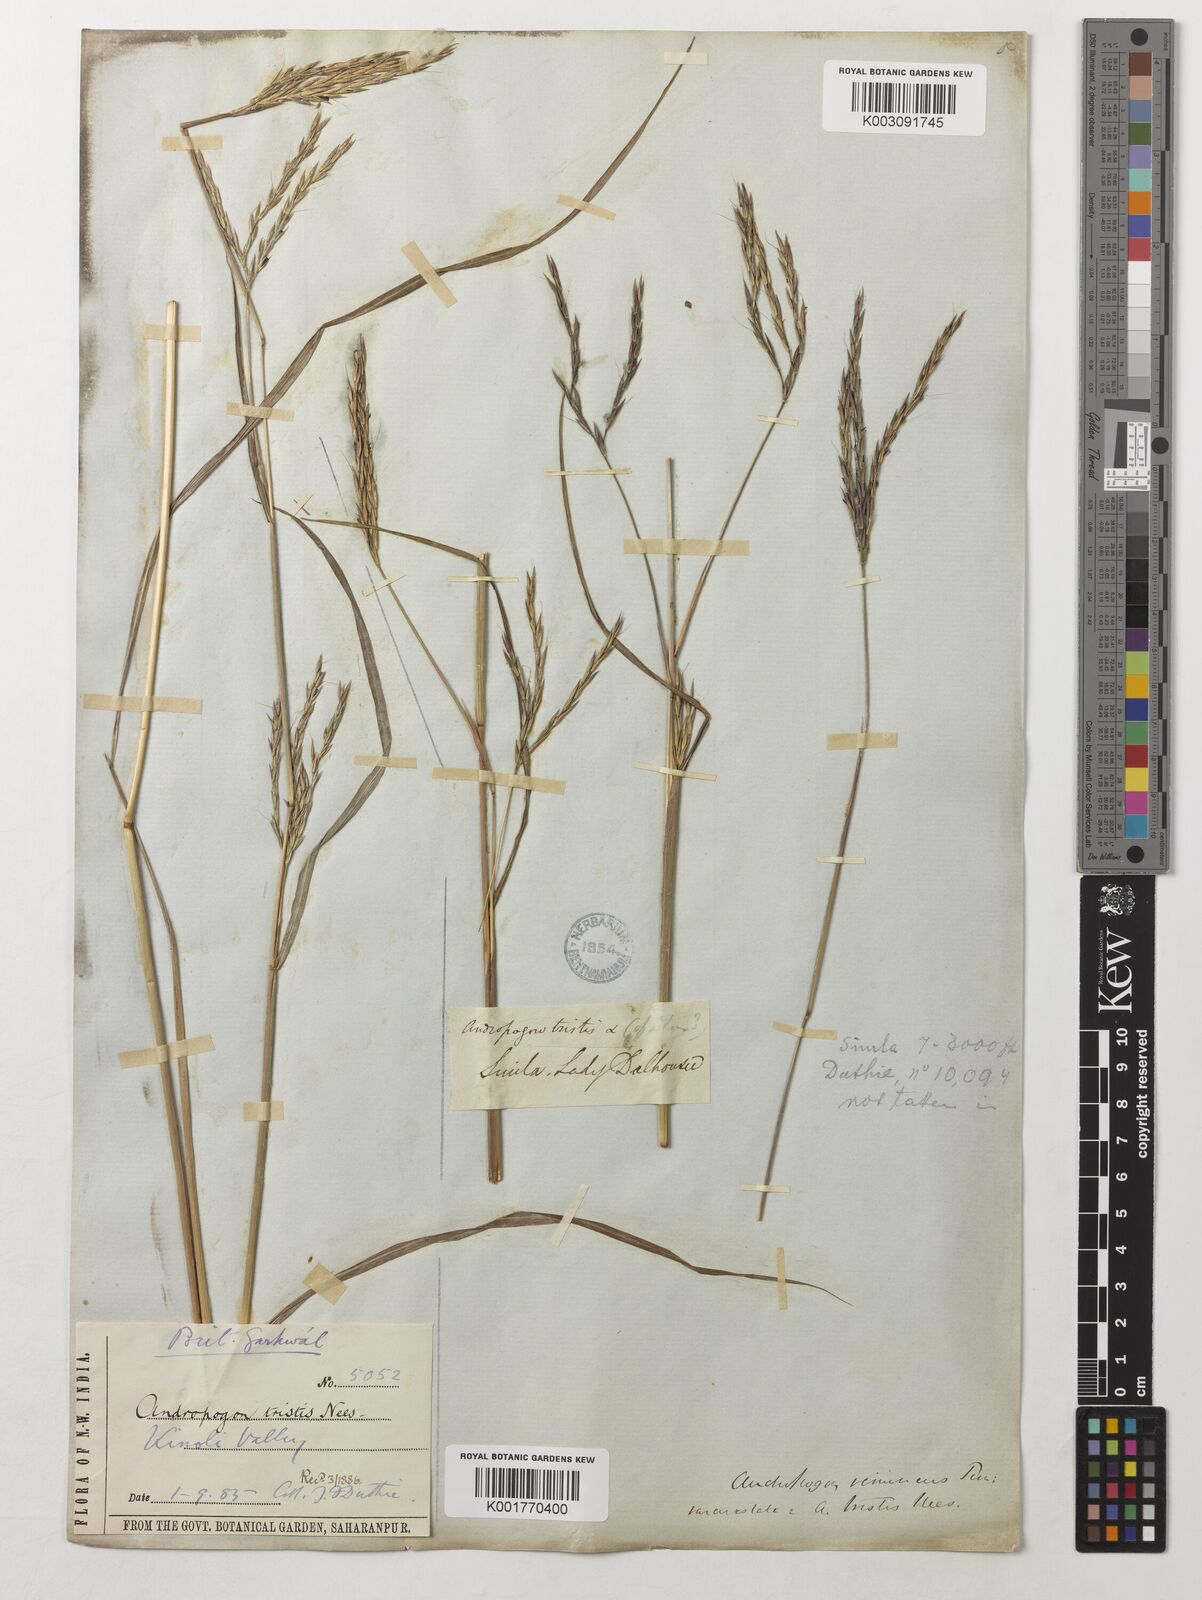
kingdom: Plantae
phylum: Tracheophyta
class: Liliopsida
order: Poales
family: Poaceae
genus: Andropogon
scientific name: Andropogon munroi
